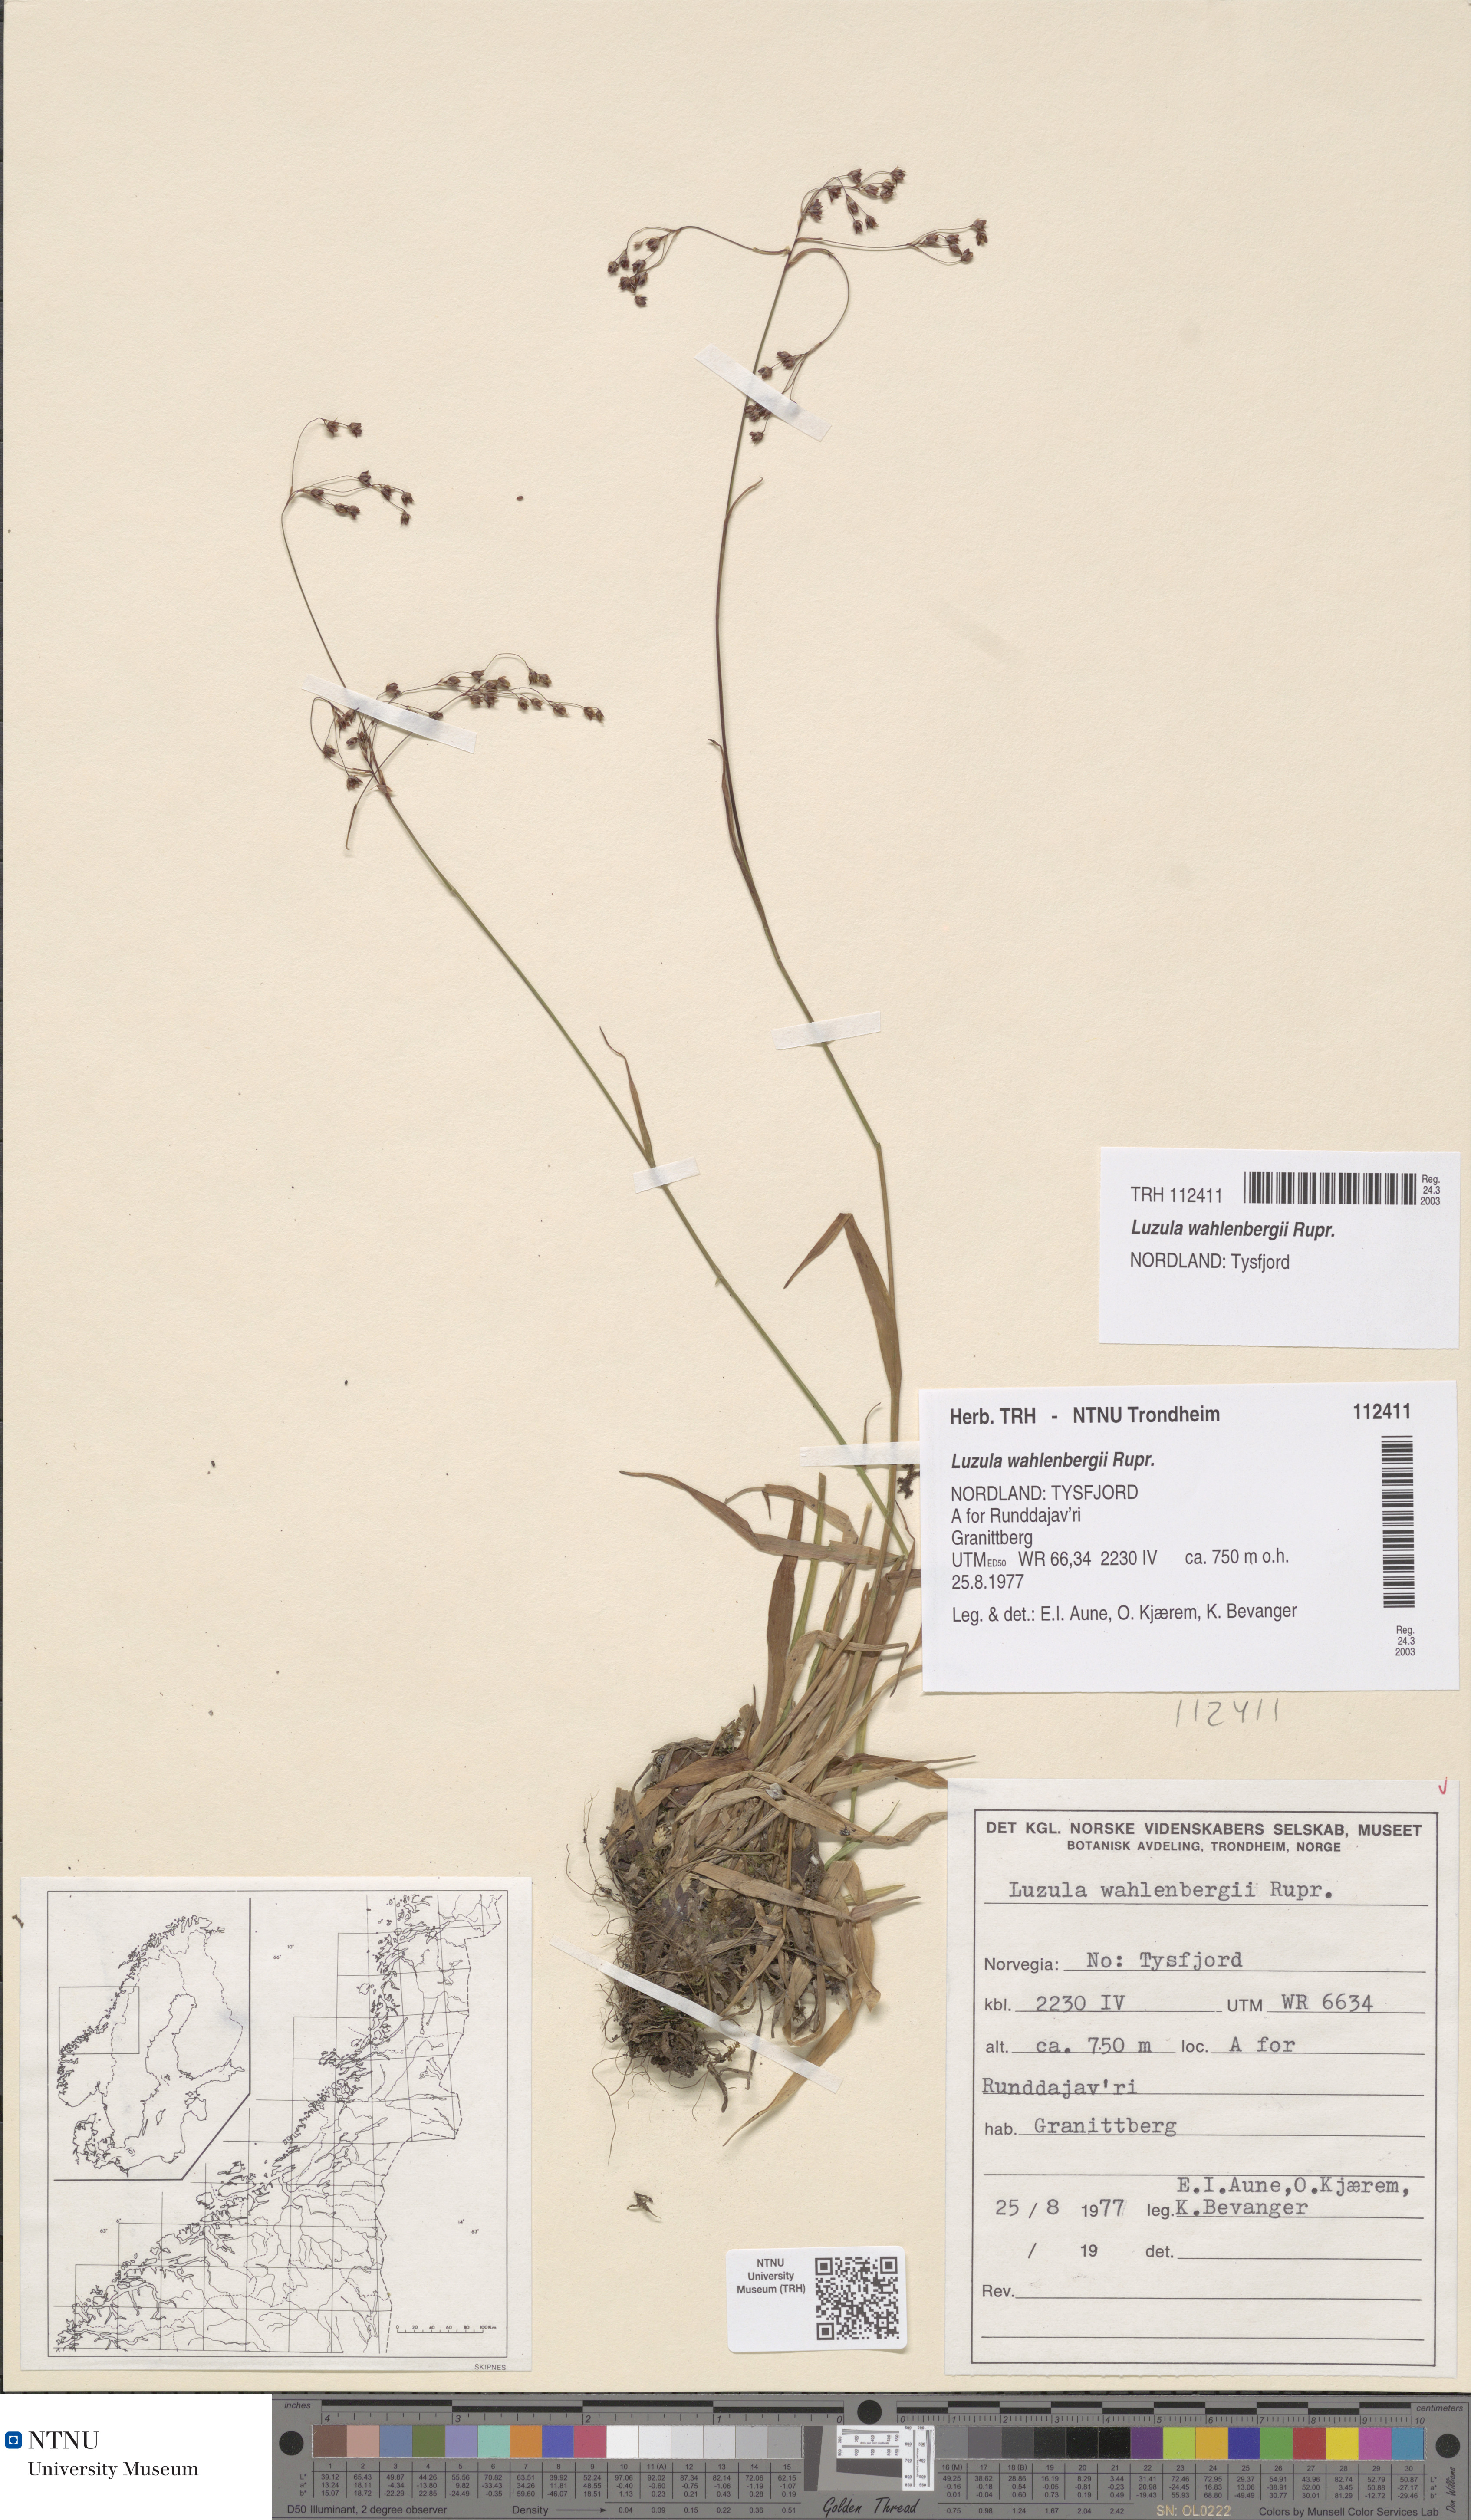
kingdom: Plantae
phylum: Tracheophyta
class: Liliopsida
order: Poales
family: Juncaceae
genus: Luzula
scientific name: Luzula wahlenbergii
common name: Wahlenberg's wood-rush
